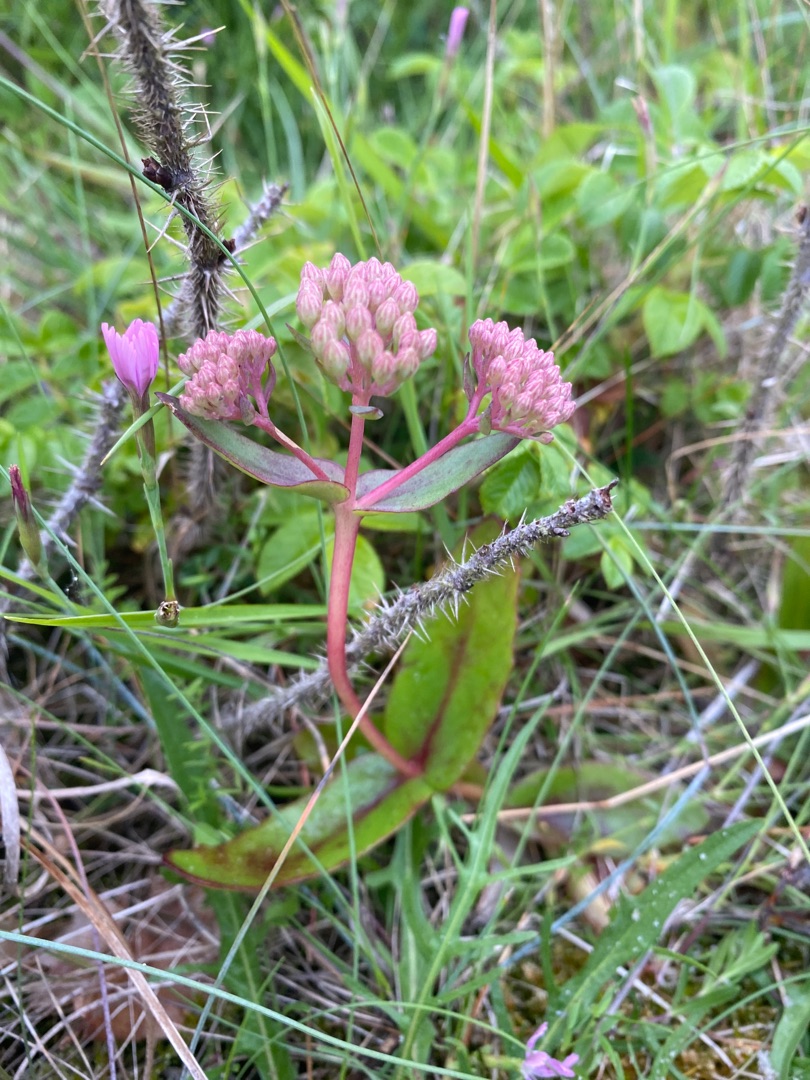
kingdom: Plantae
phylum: Tracheophyta
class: Magnoliopsida
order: Saxifragales
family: Crassulaceae
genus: Hylotelephium
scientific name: Hylotelephium maximum
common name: Almindelig sankthansurt
